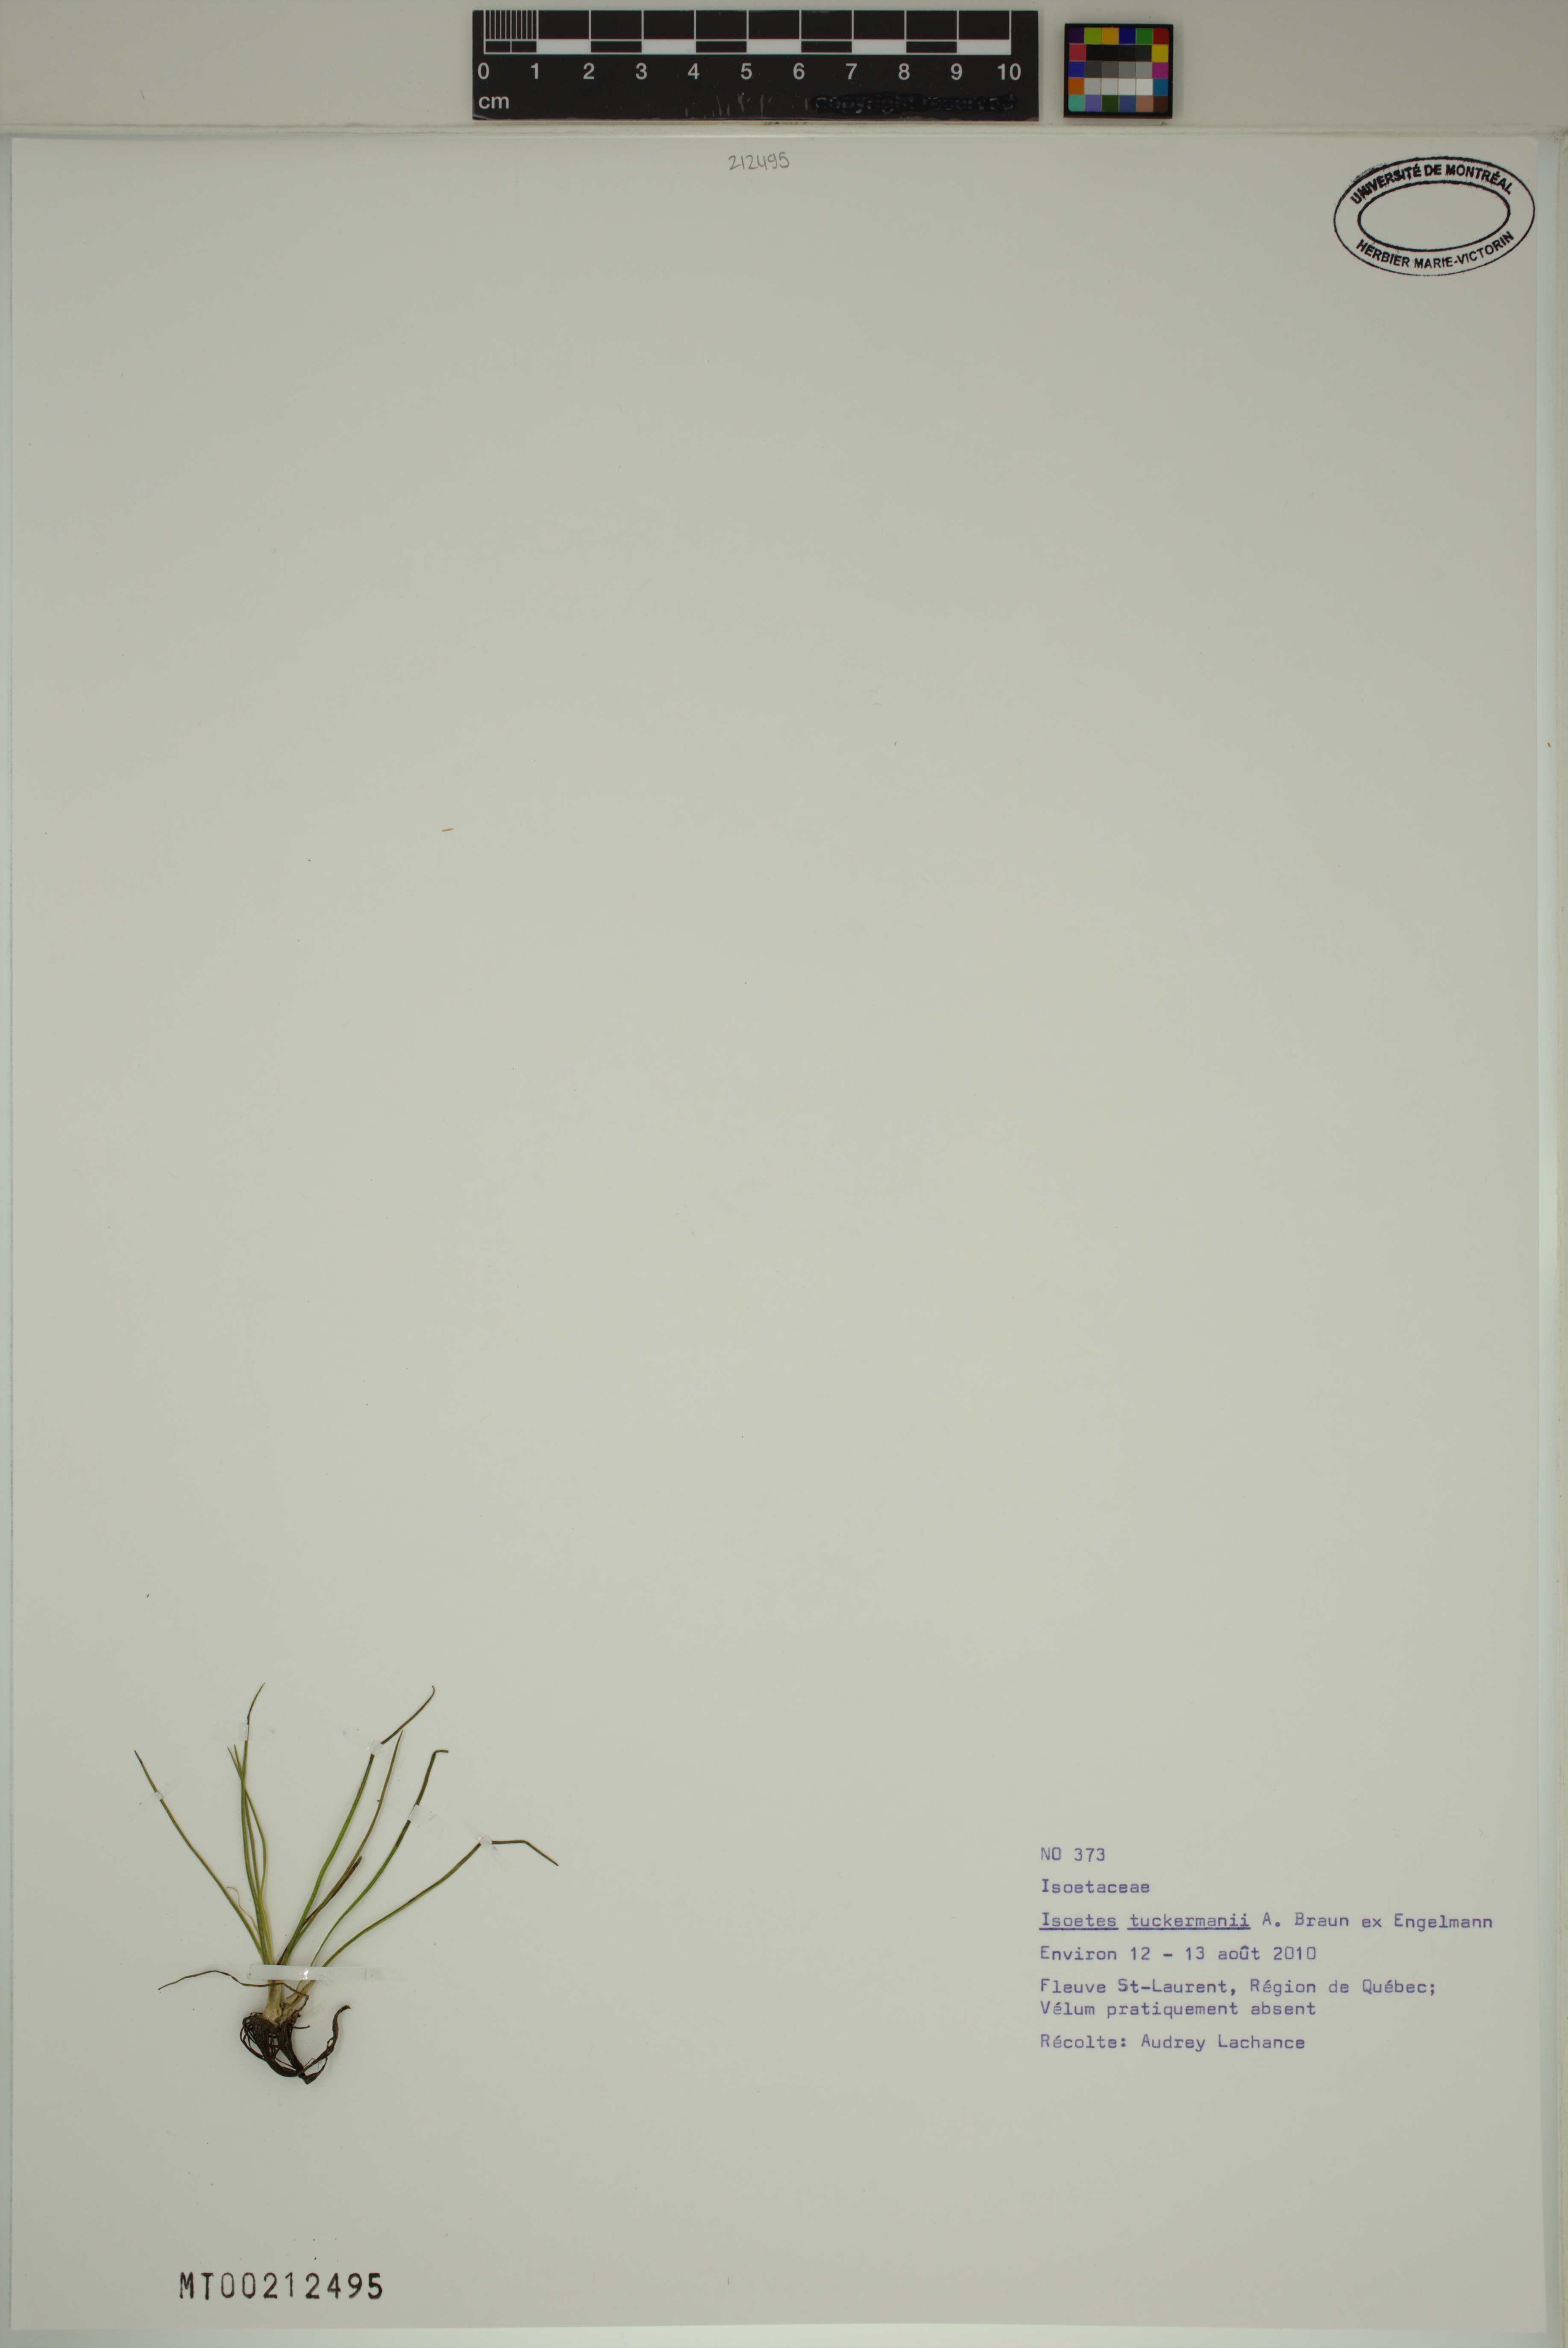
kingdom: Plantae
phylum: Tracheophyta
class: Lycopodiopsida
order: Isoetales
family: Isoetaceae
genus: Isoetes
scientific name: Isoetes tuckermanii
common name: Tuckerman's quillwort
